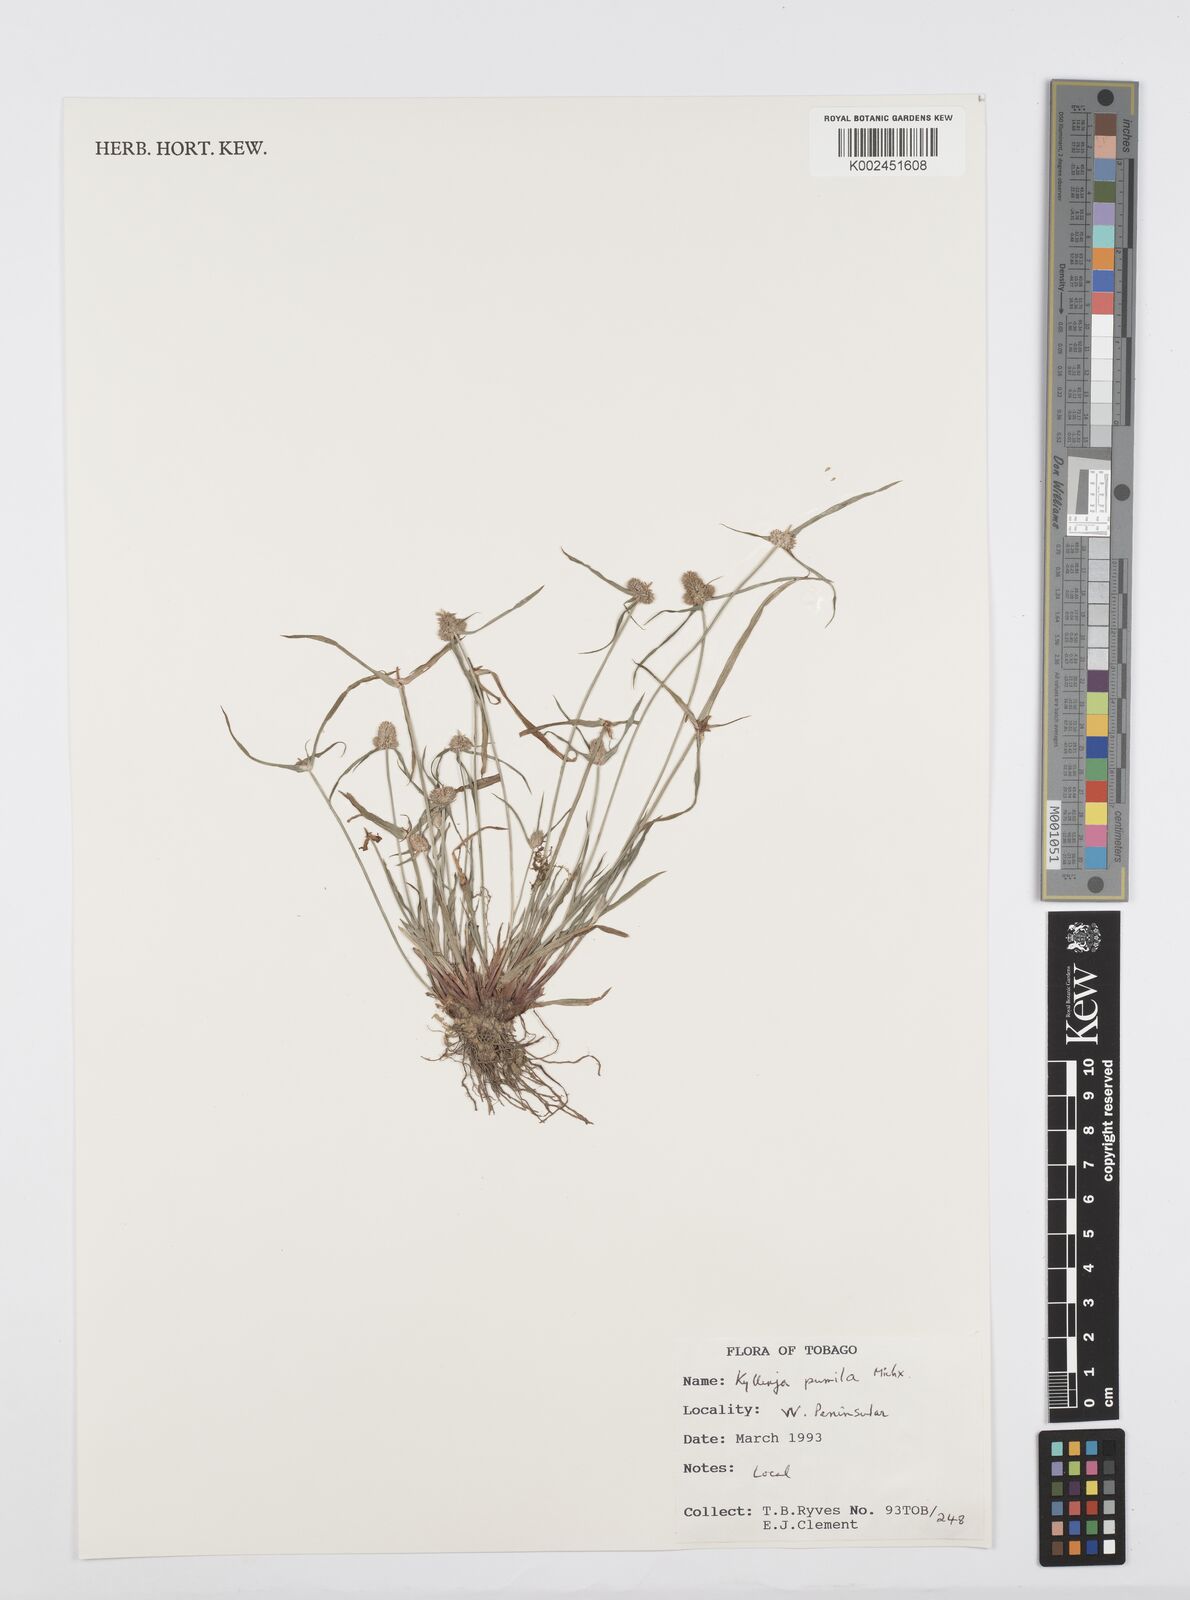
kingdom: Plantae
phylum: Tracheophyta
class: Liliopsida
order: Poales
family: Cyperaceae
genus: Cyperus
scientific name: Cyperus
